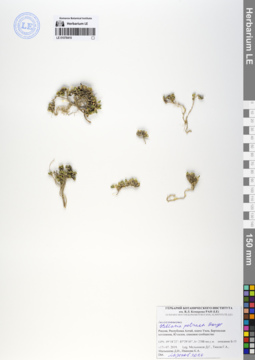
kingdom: Plantae
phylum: Tracheophyta
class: Magnoliopsida
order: Caryophyllales
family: Caryophyllaceae
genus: Adenonema
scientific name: Adenonema petraeum
